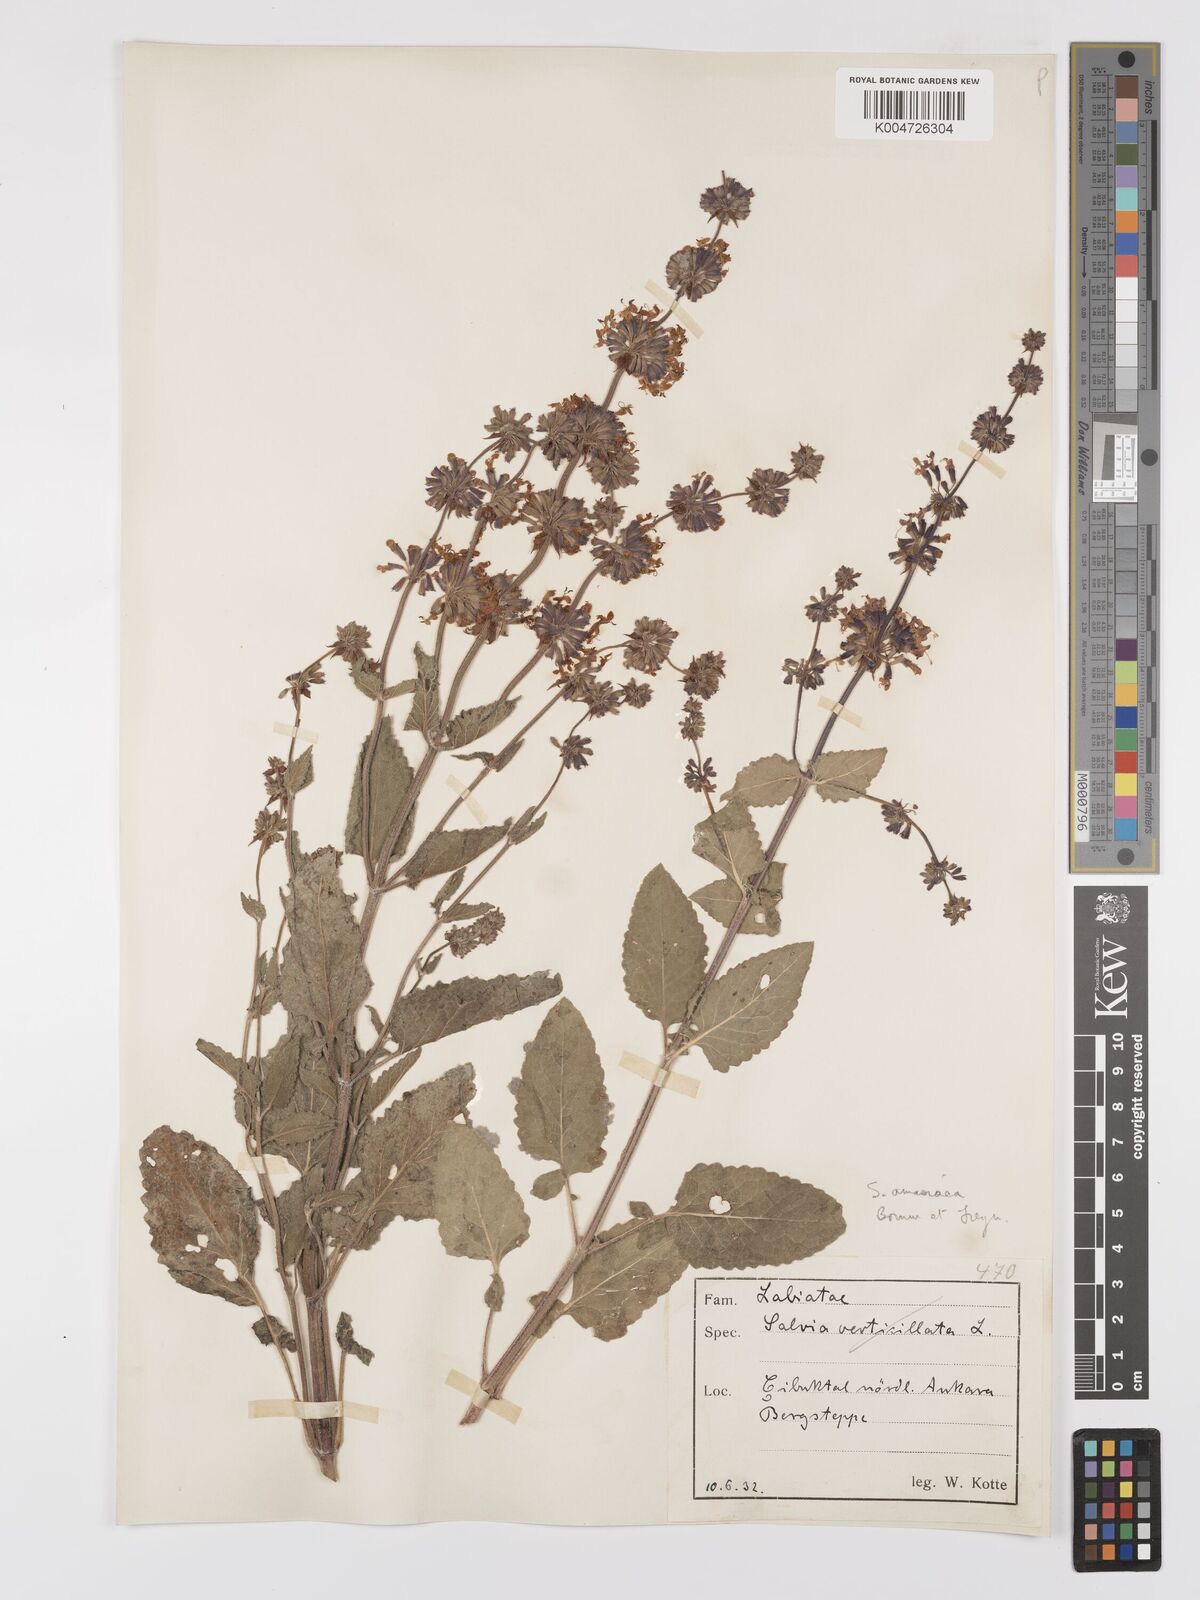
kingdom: Plantae
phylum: Tracheophyta
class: Magnoliopsida
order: Lamiales
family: Lamiaceae
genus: Salvia
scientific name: Salvia verticillata
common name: Whorled clary
